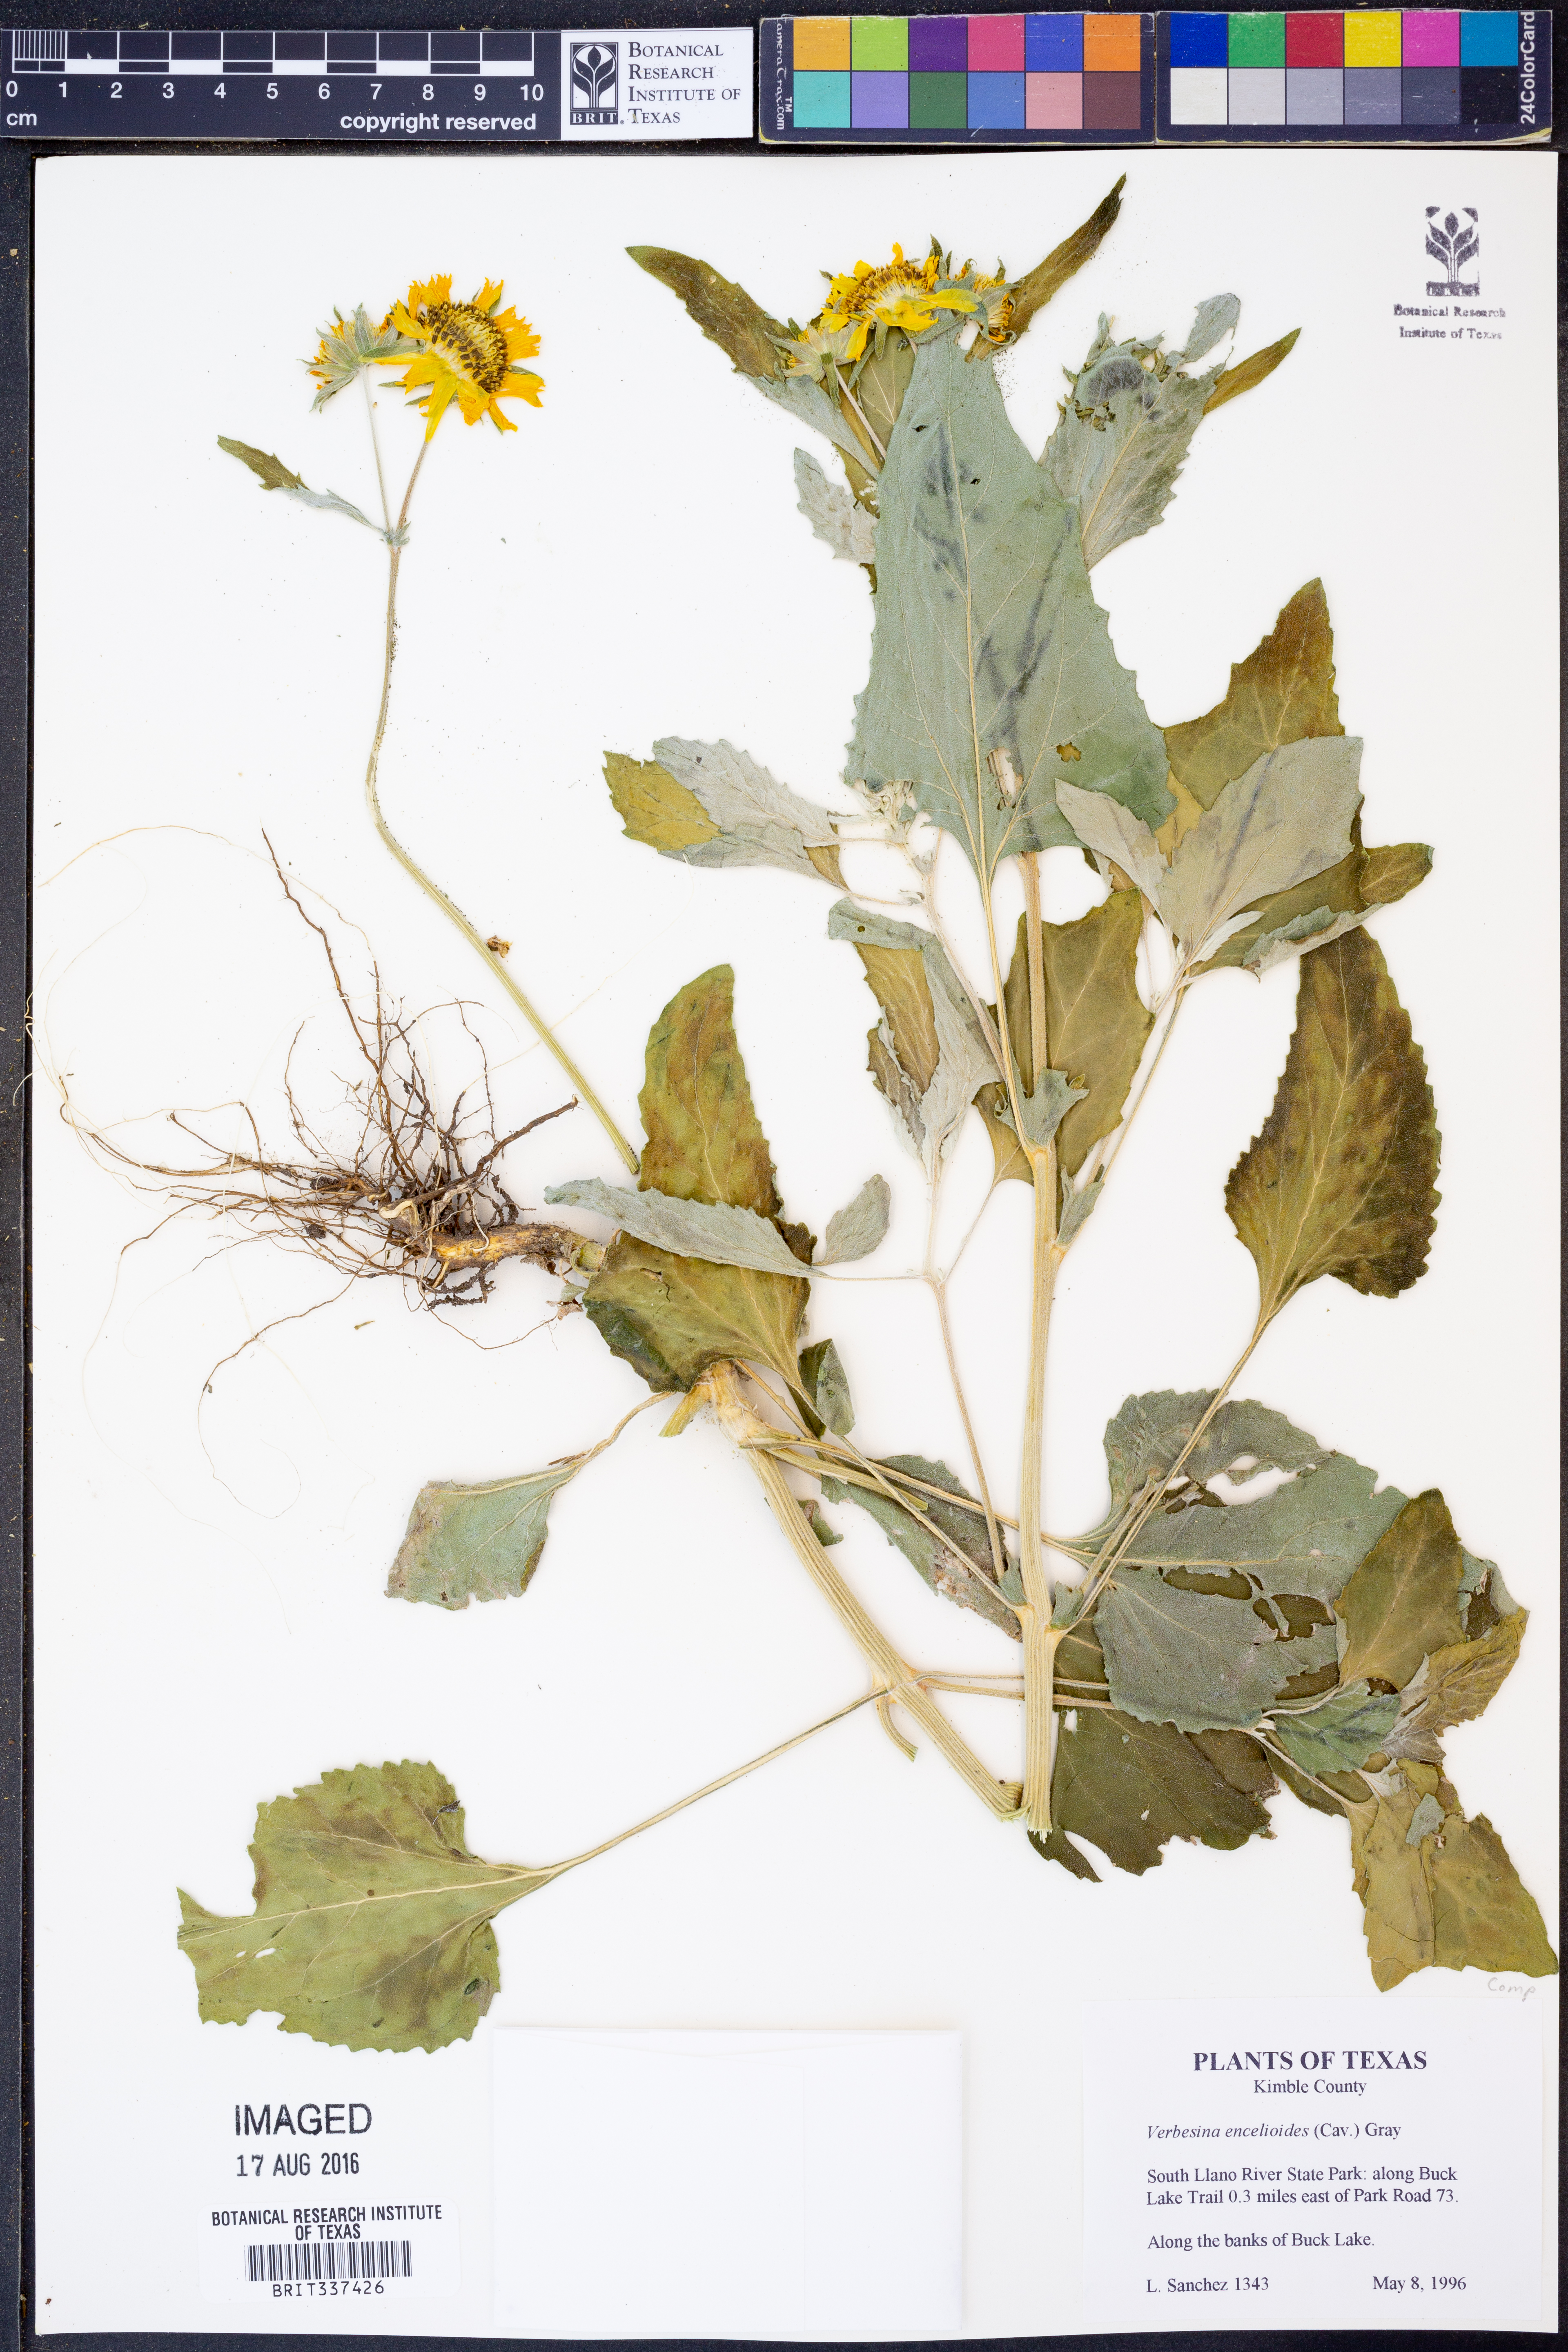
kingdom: Plantae
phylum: Tracheophyta
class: Magnoliopsida
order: Asterales
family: Asteraceae
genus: Verbesina
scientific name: Verbesina encelioides
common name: Golden crownbeard
